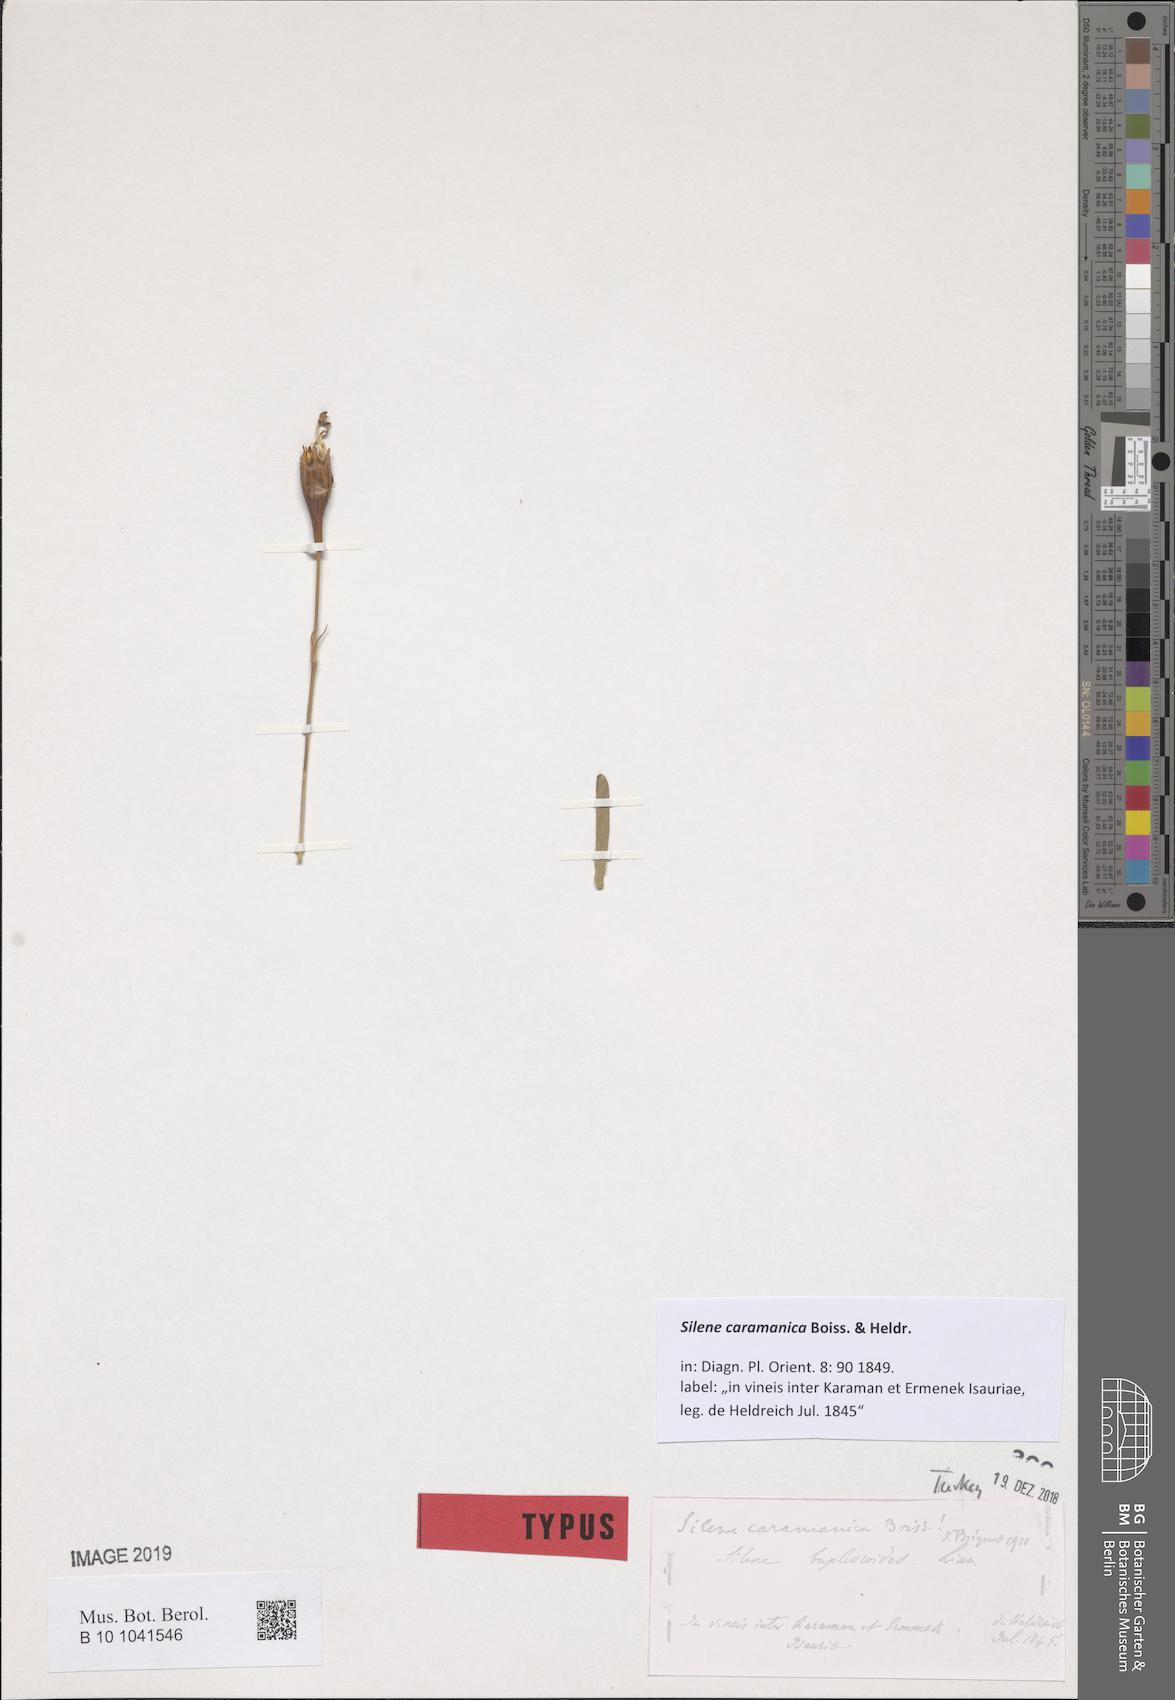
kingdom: Plantae
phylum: Tracheophyta
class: Magnoliopsida
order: Caryophyllales
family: Caryophyllaceae
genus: Silene
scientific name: Silene caramanica
